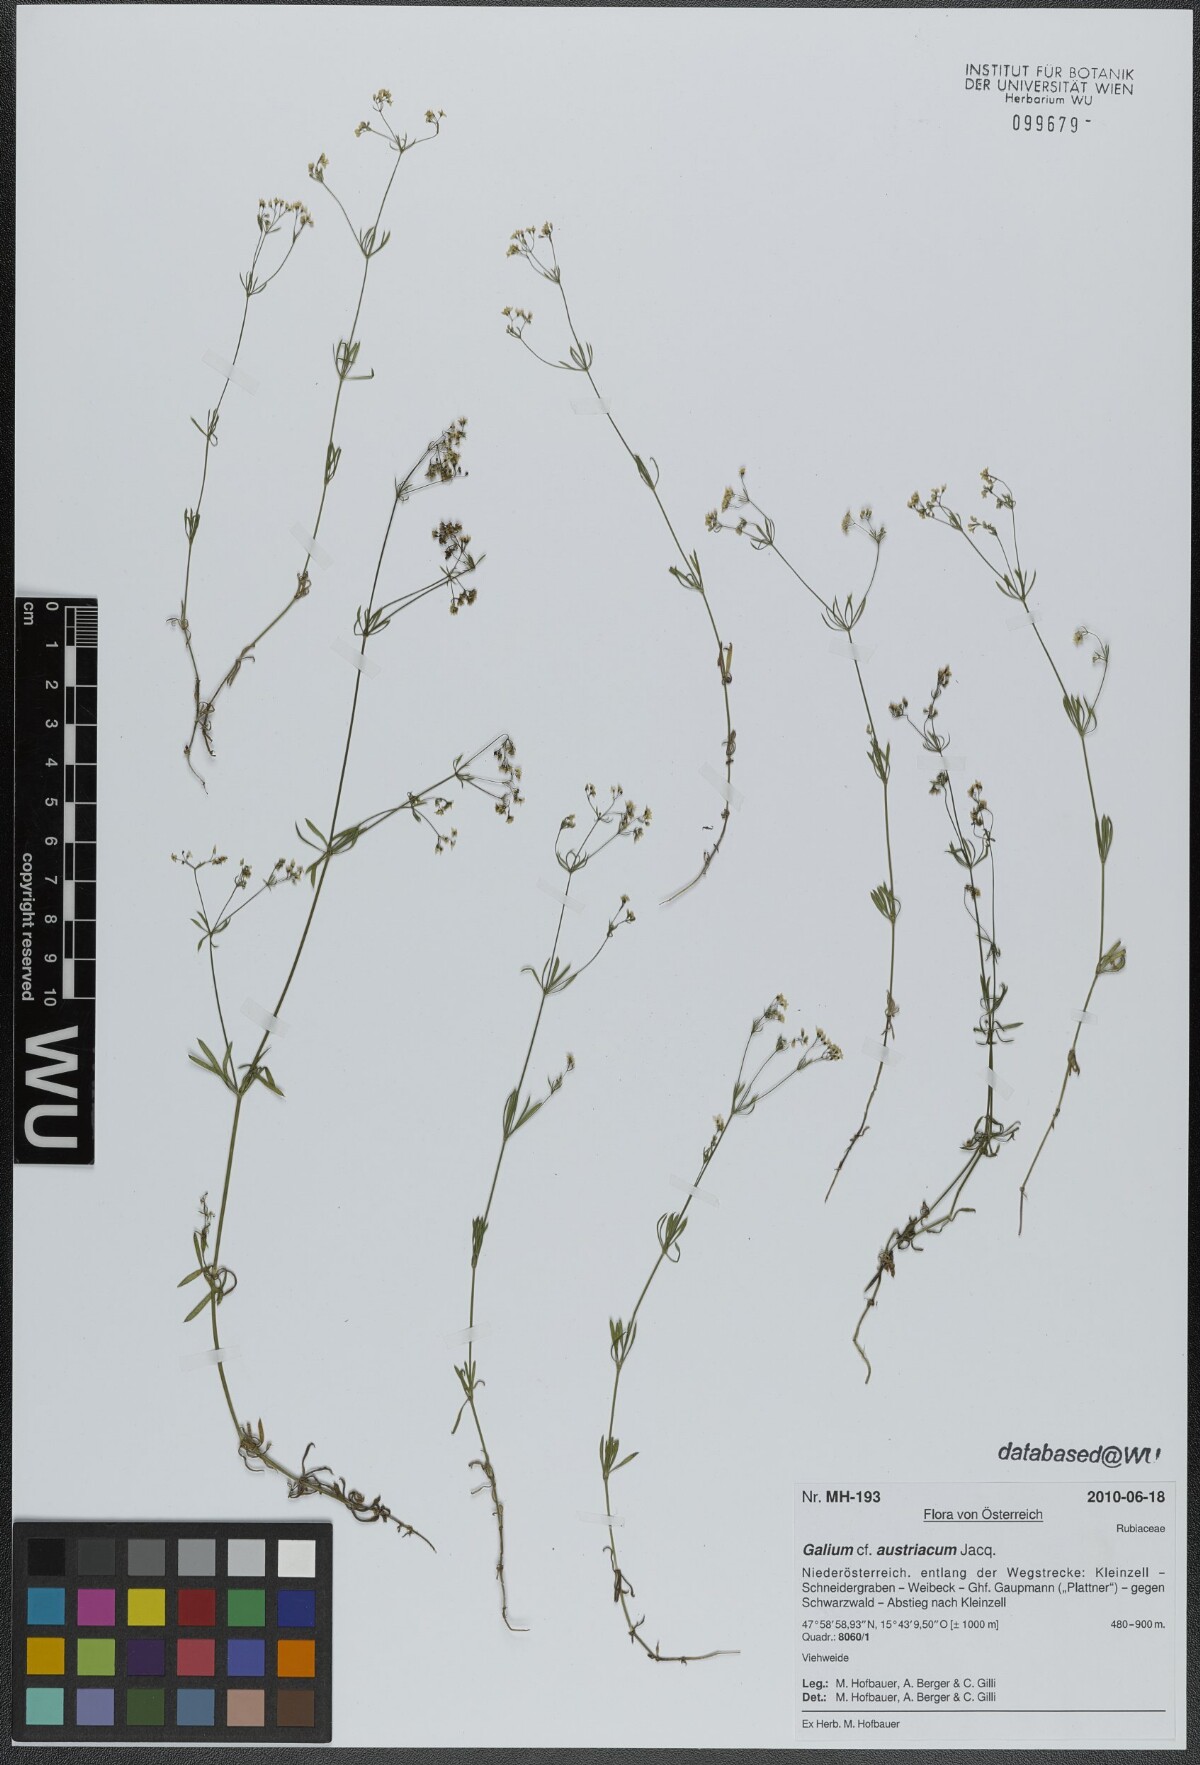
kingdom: Plantae
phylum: Tracheophyta
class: Magnoliopsida
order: Gentianales
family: Rubiaceae
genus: Galium
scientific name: Galium austriacum
